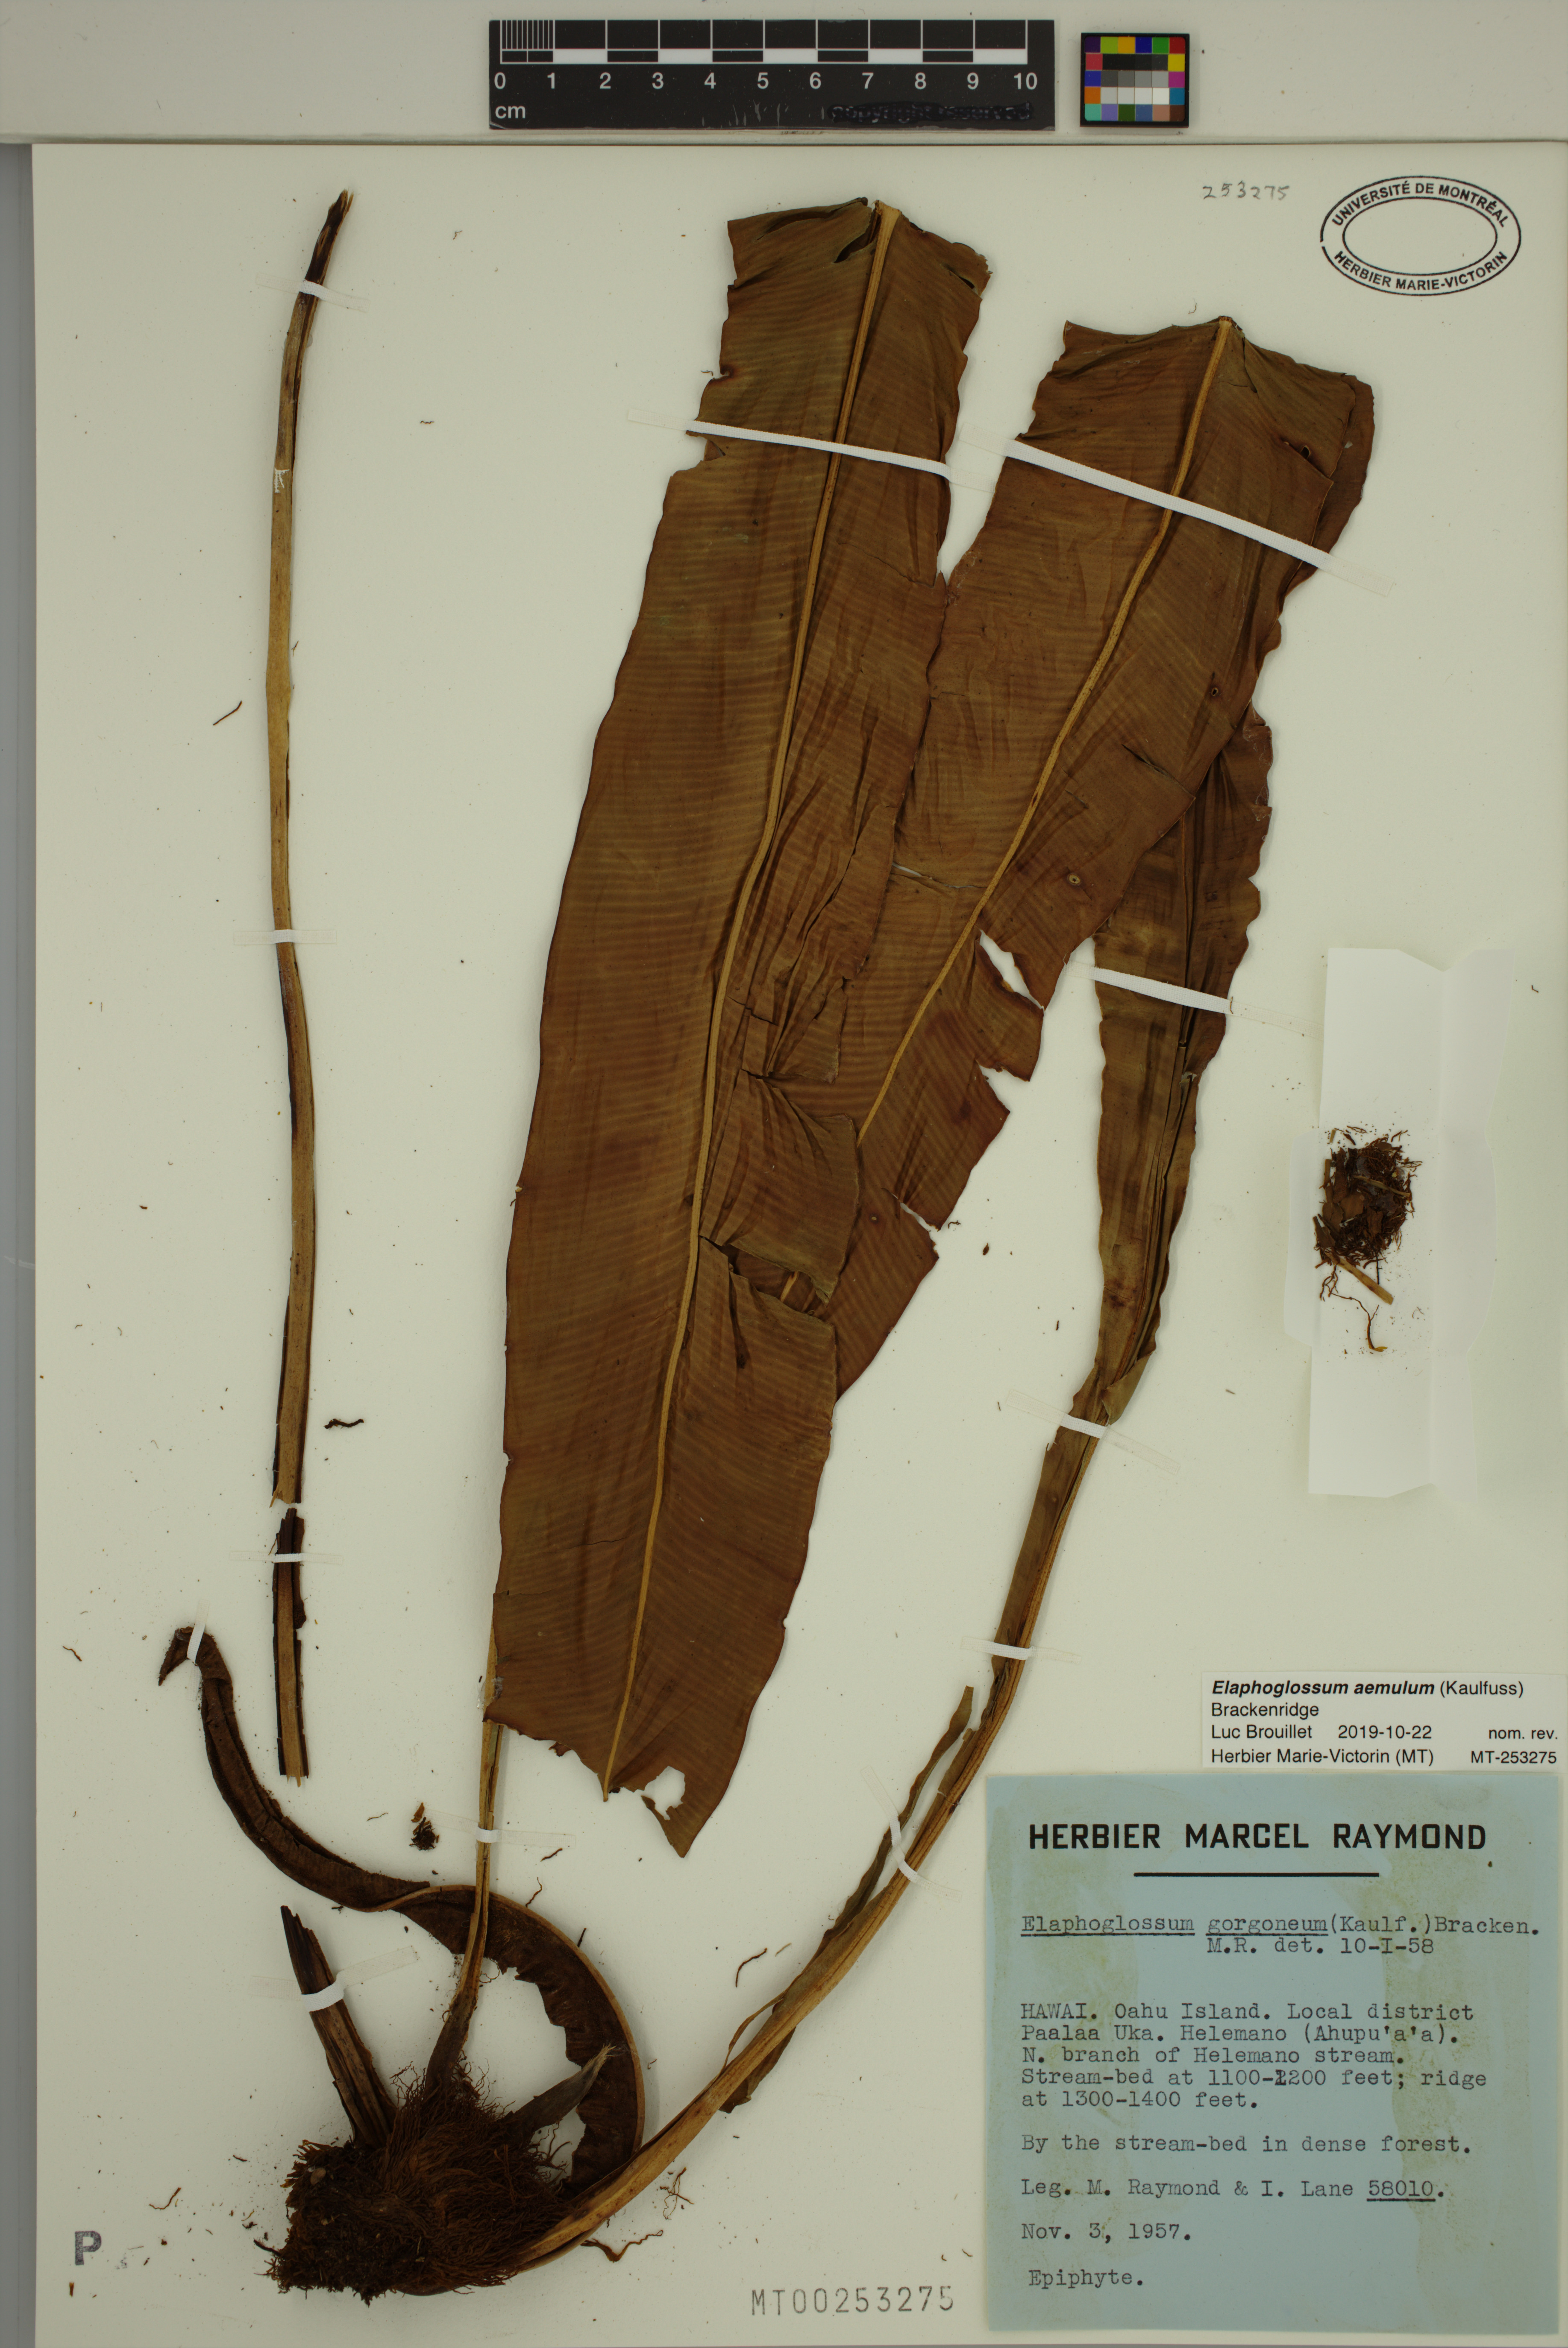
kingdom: Plantae
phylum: Tracheophyta
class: Polypodiopsida
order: Polypodiales
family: Dryopteridaceae
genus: Elaphoglossum
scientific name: Elaphoglossum aemulum
